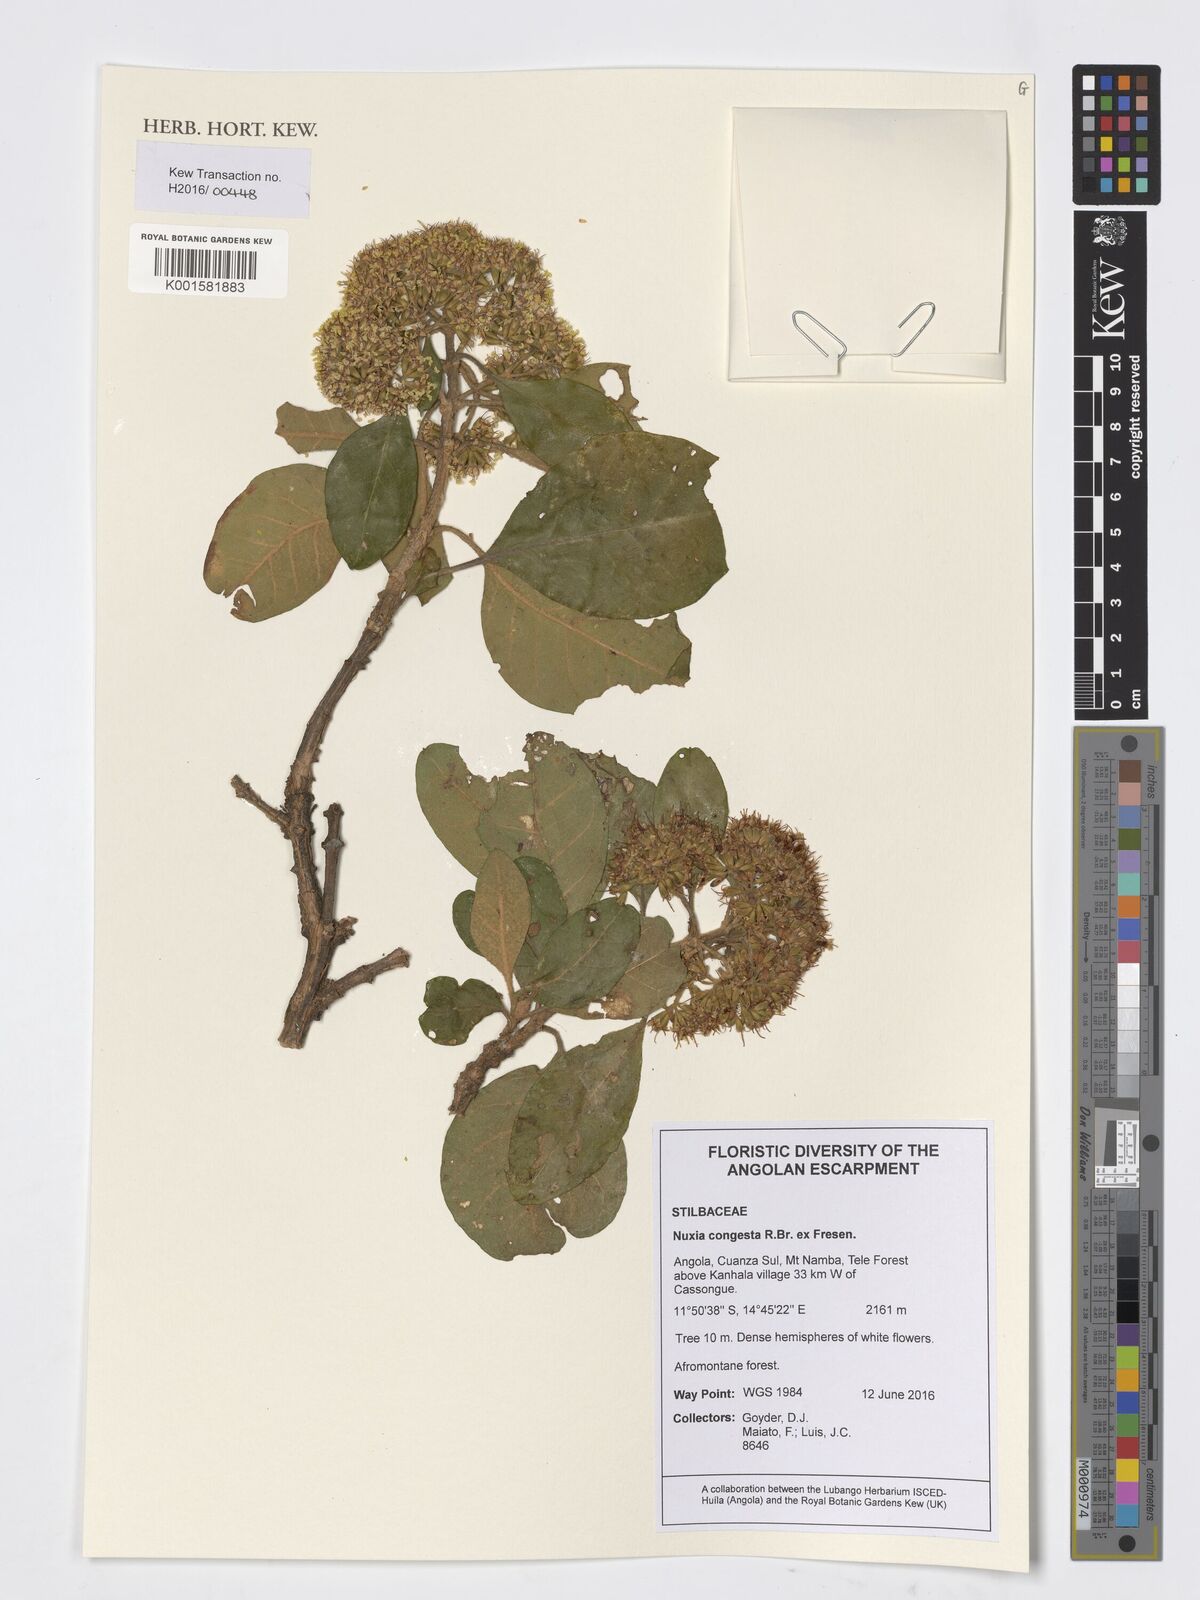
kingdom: Plantae
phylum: Tracheophyta
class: Magnoliopsida
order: Lamiales
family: Stilbaceae
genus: Nuxia
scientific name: Nuxia congesta
